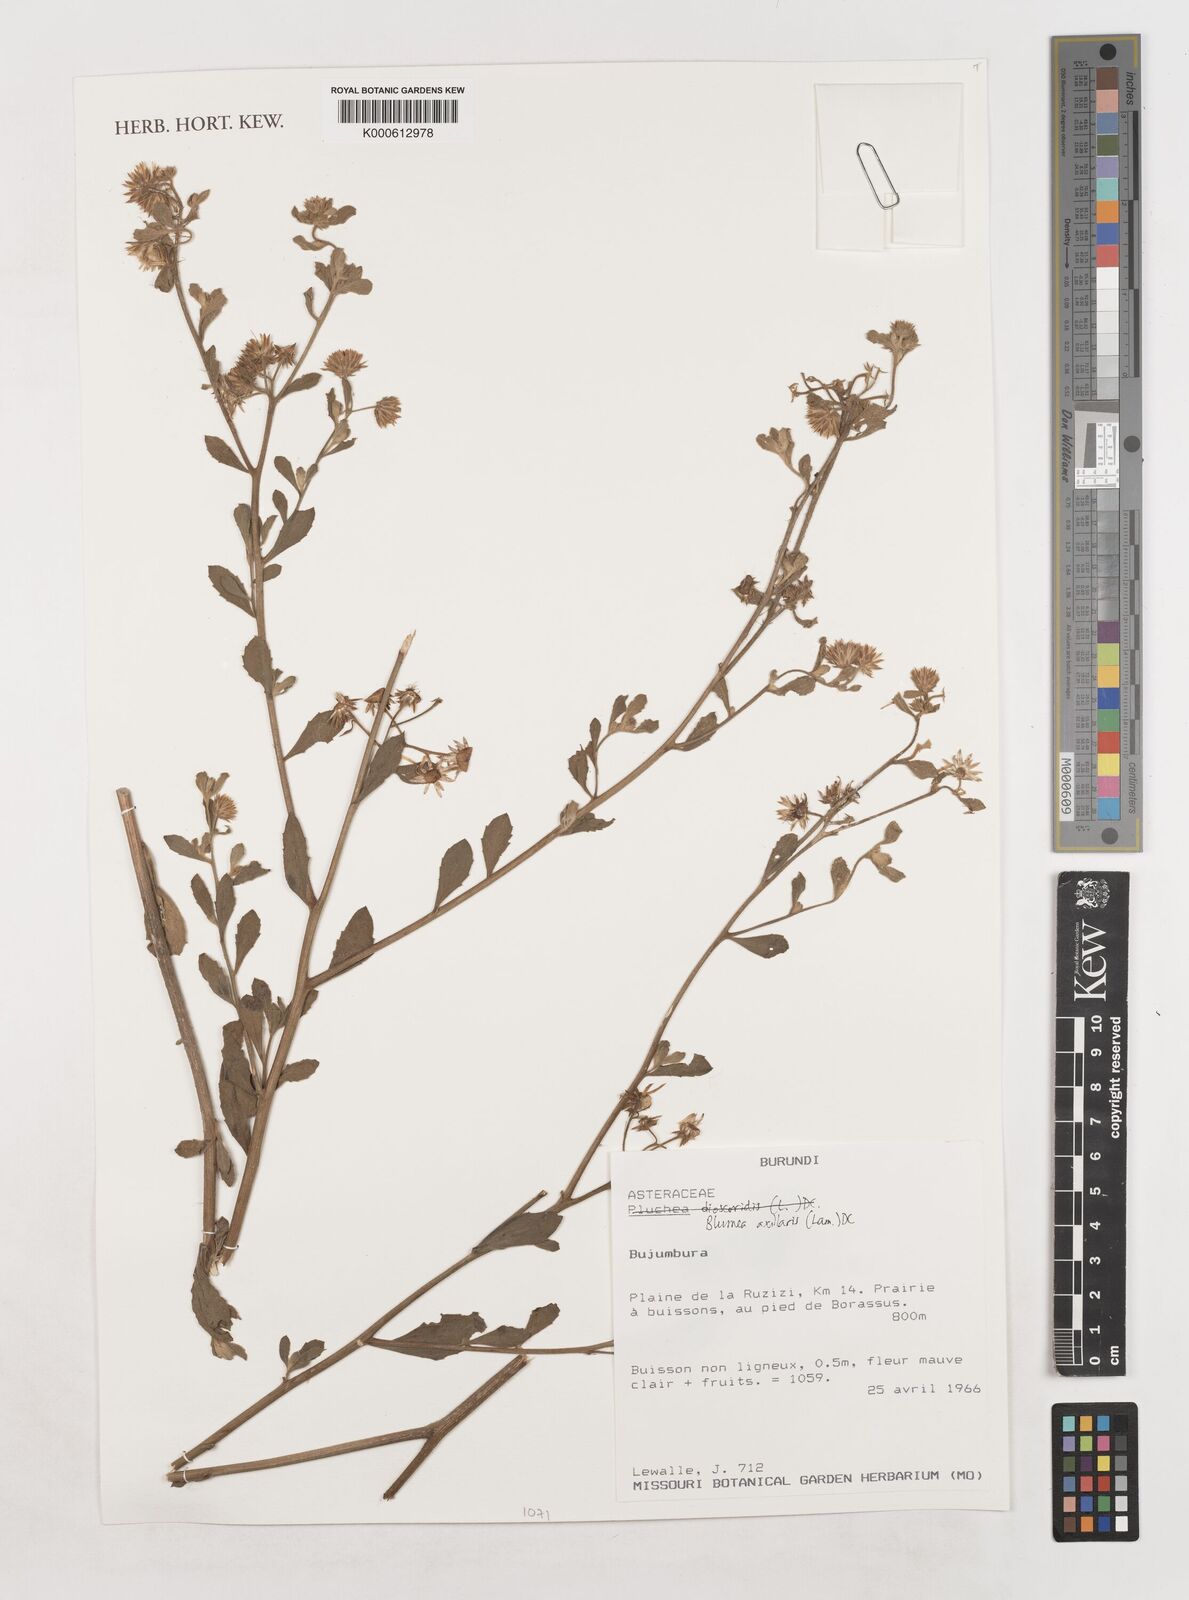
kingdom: Plantae
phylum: Tracheophyta
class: Magnoliopsida
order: Asterales
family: Asteraceae
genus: Blumea
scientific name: Blumea axillaris
